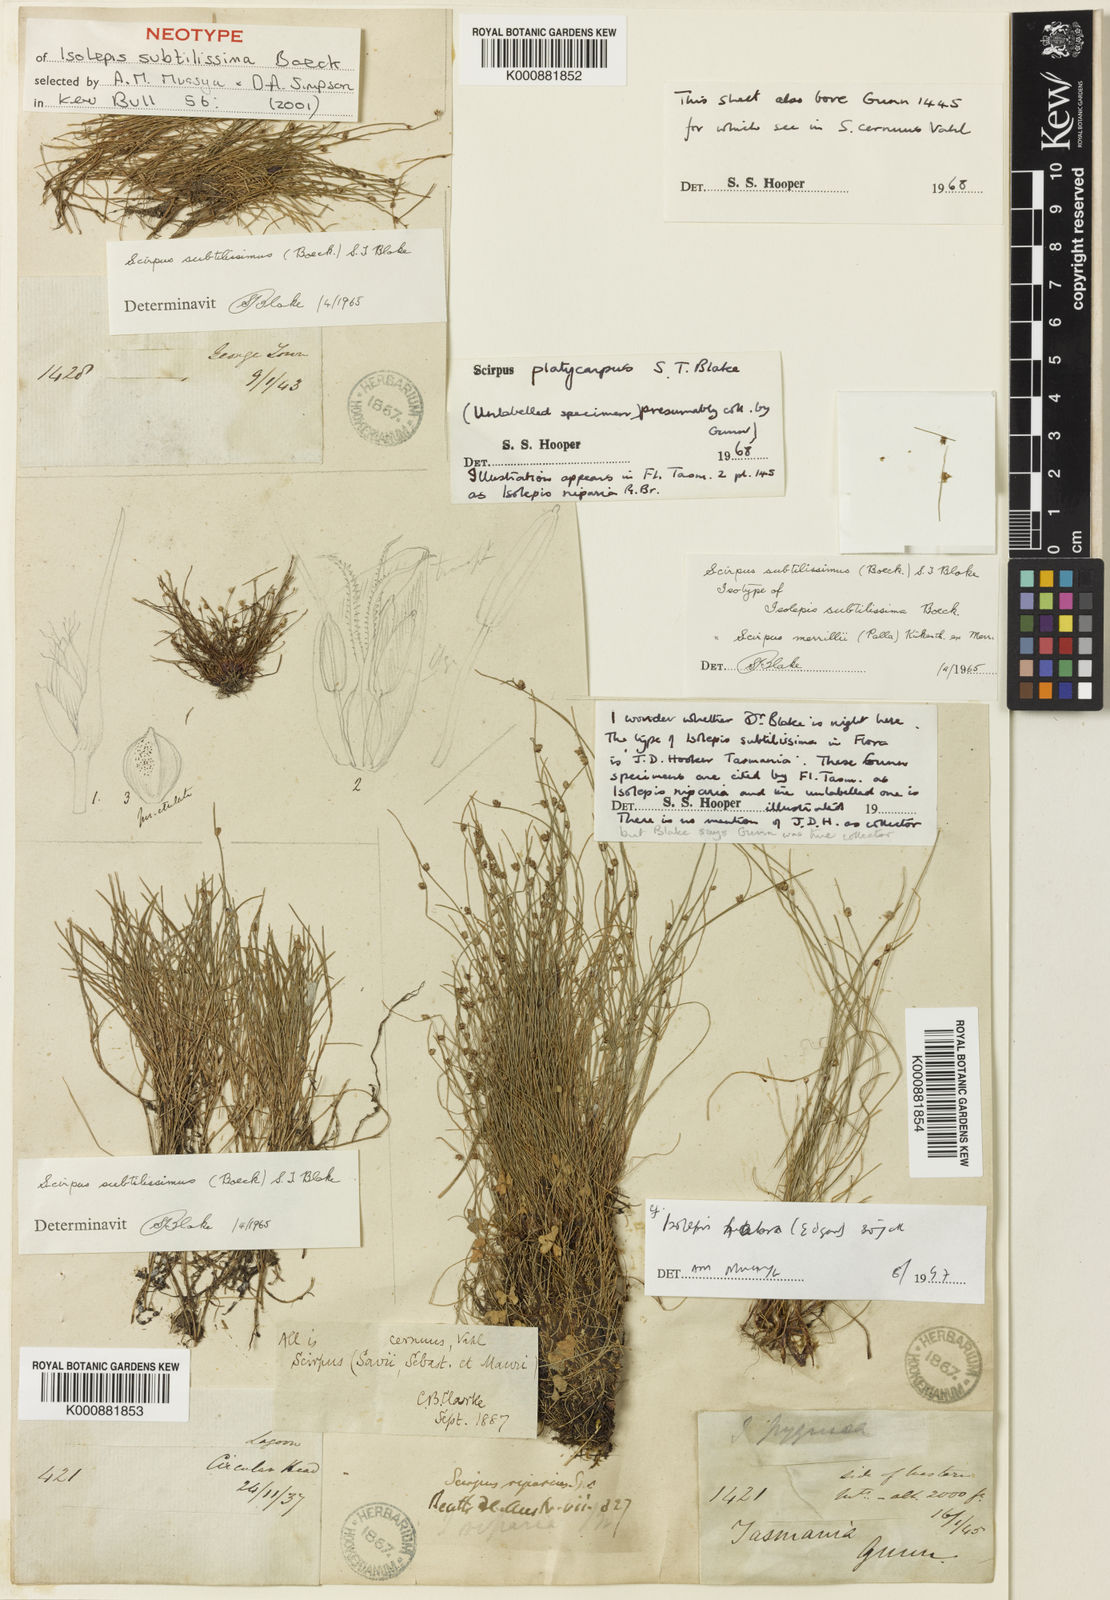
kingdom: Plantae
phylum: Tracheophyta
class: Liliopsida
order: Poales
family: Cyperaceae
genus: Isolepis
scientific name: Isolepis subtilissima
